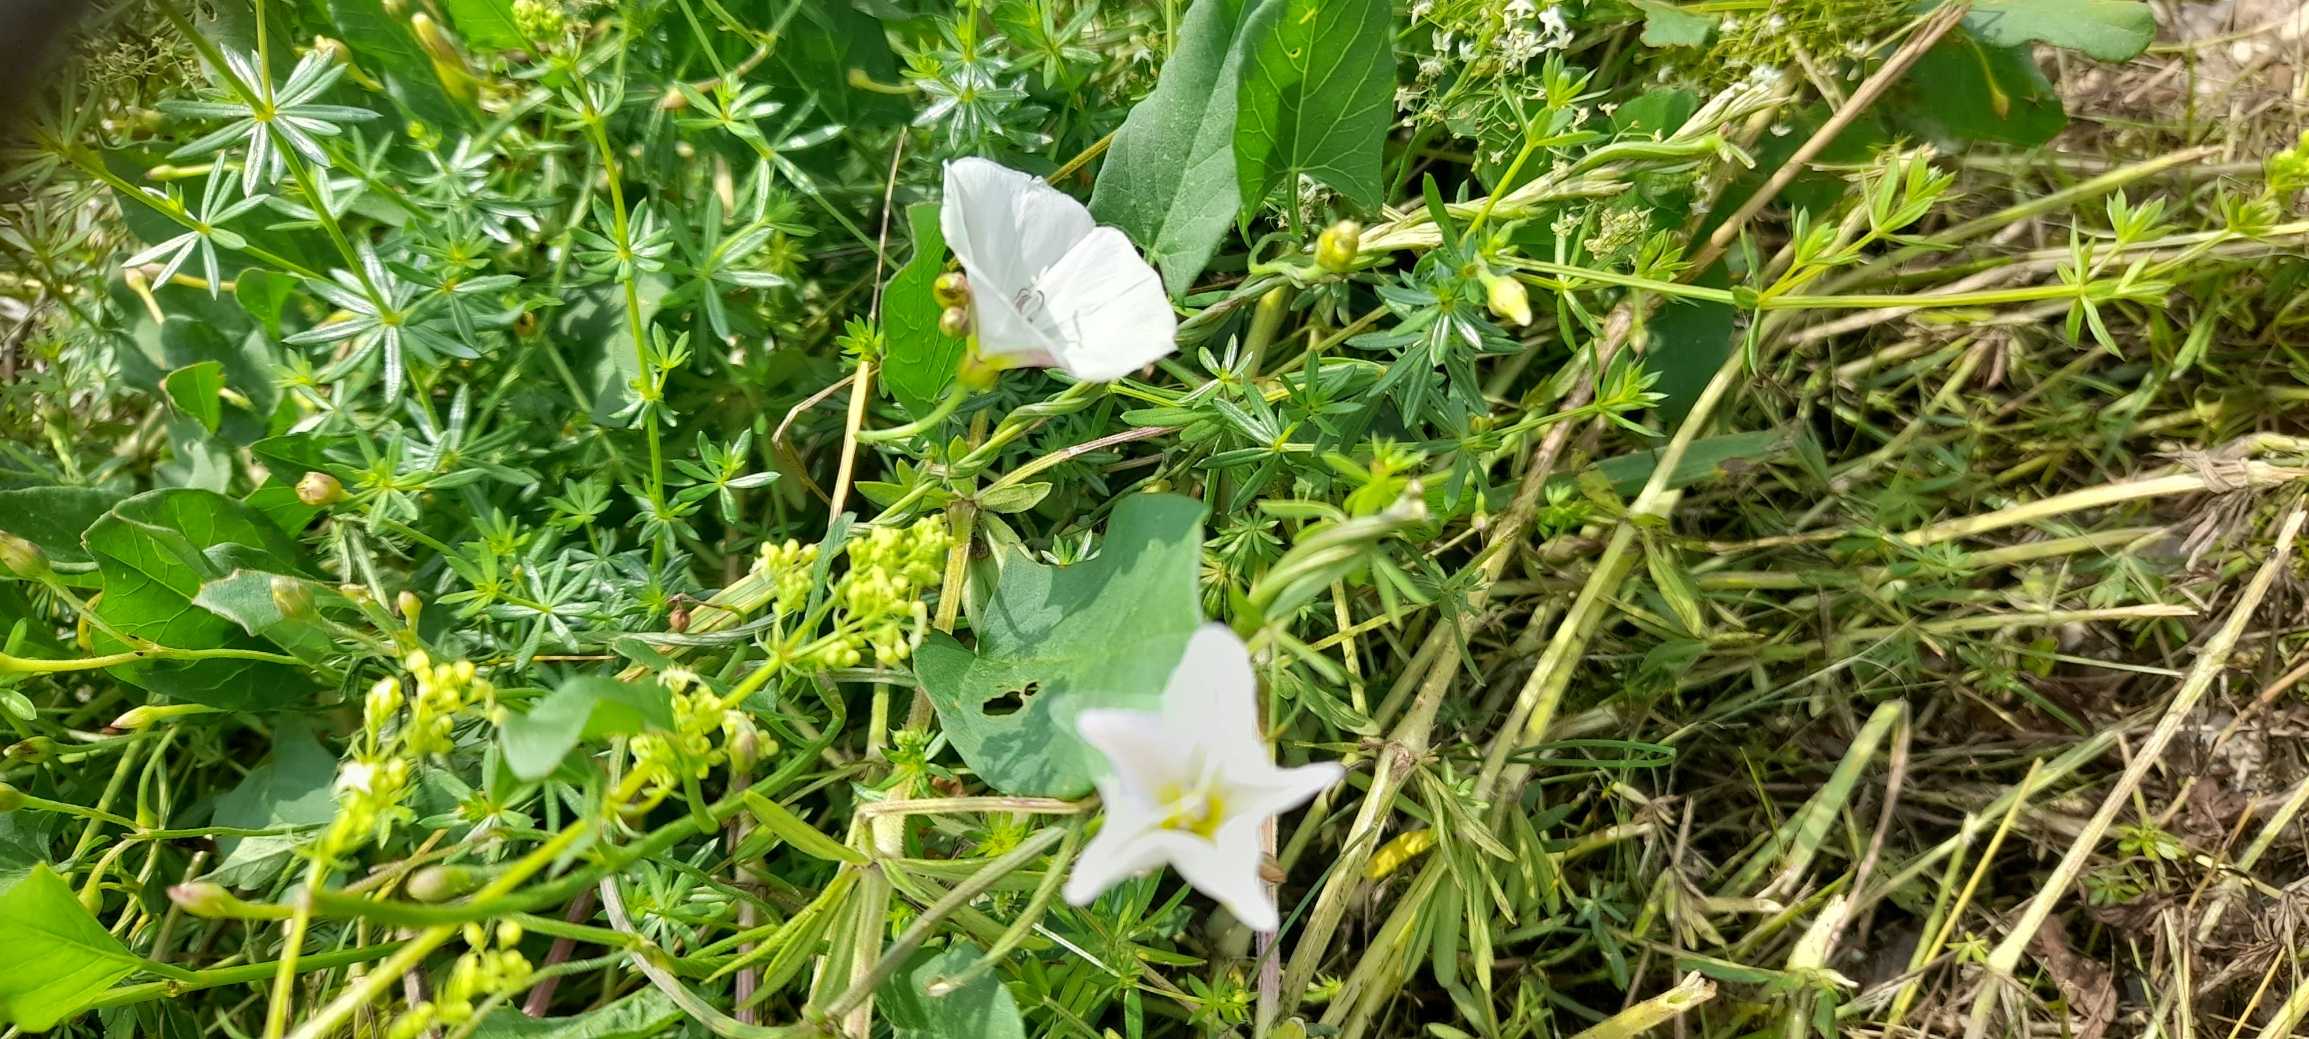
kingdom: Plantae
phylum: Tracheophyta
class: Magnoliopsida
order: Solanales
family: Convolvulaceae
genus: Convolvulus
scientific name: Convolvulus arvensis
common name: Ager-snerle
